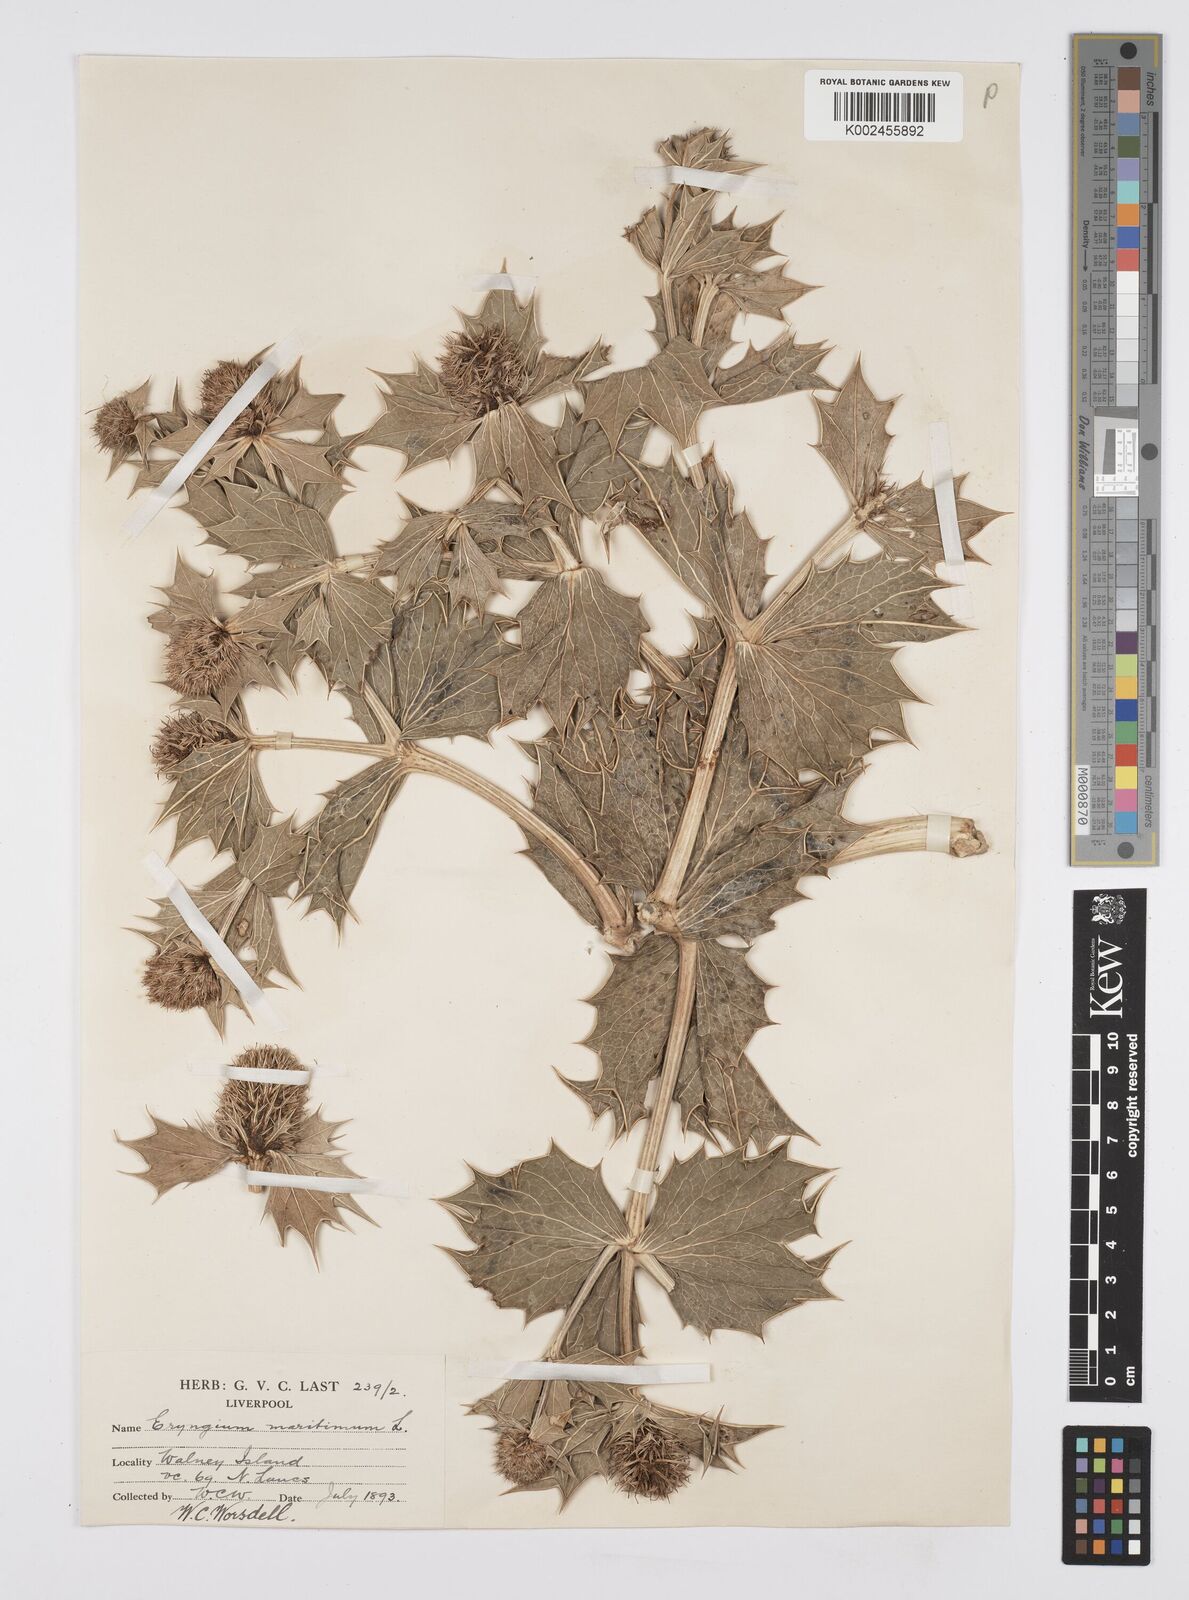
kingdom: Plantae
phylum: Tracheophyta
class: Magnoliopsida
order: Apiales
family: Apiaceae
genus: Eryngium
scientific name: Eryngium maritimum
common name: Sea-holly
